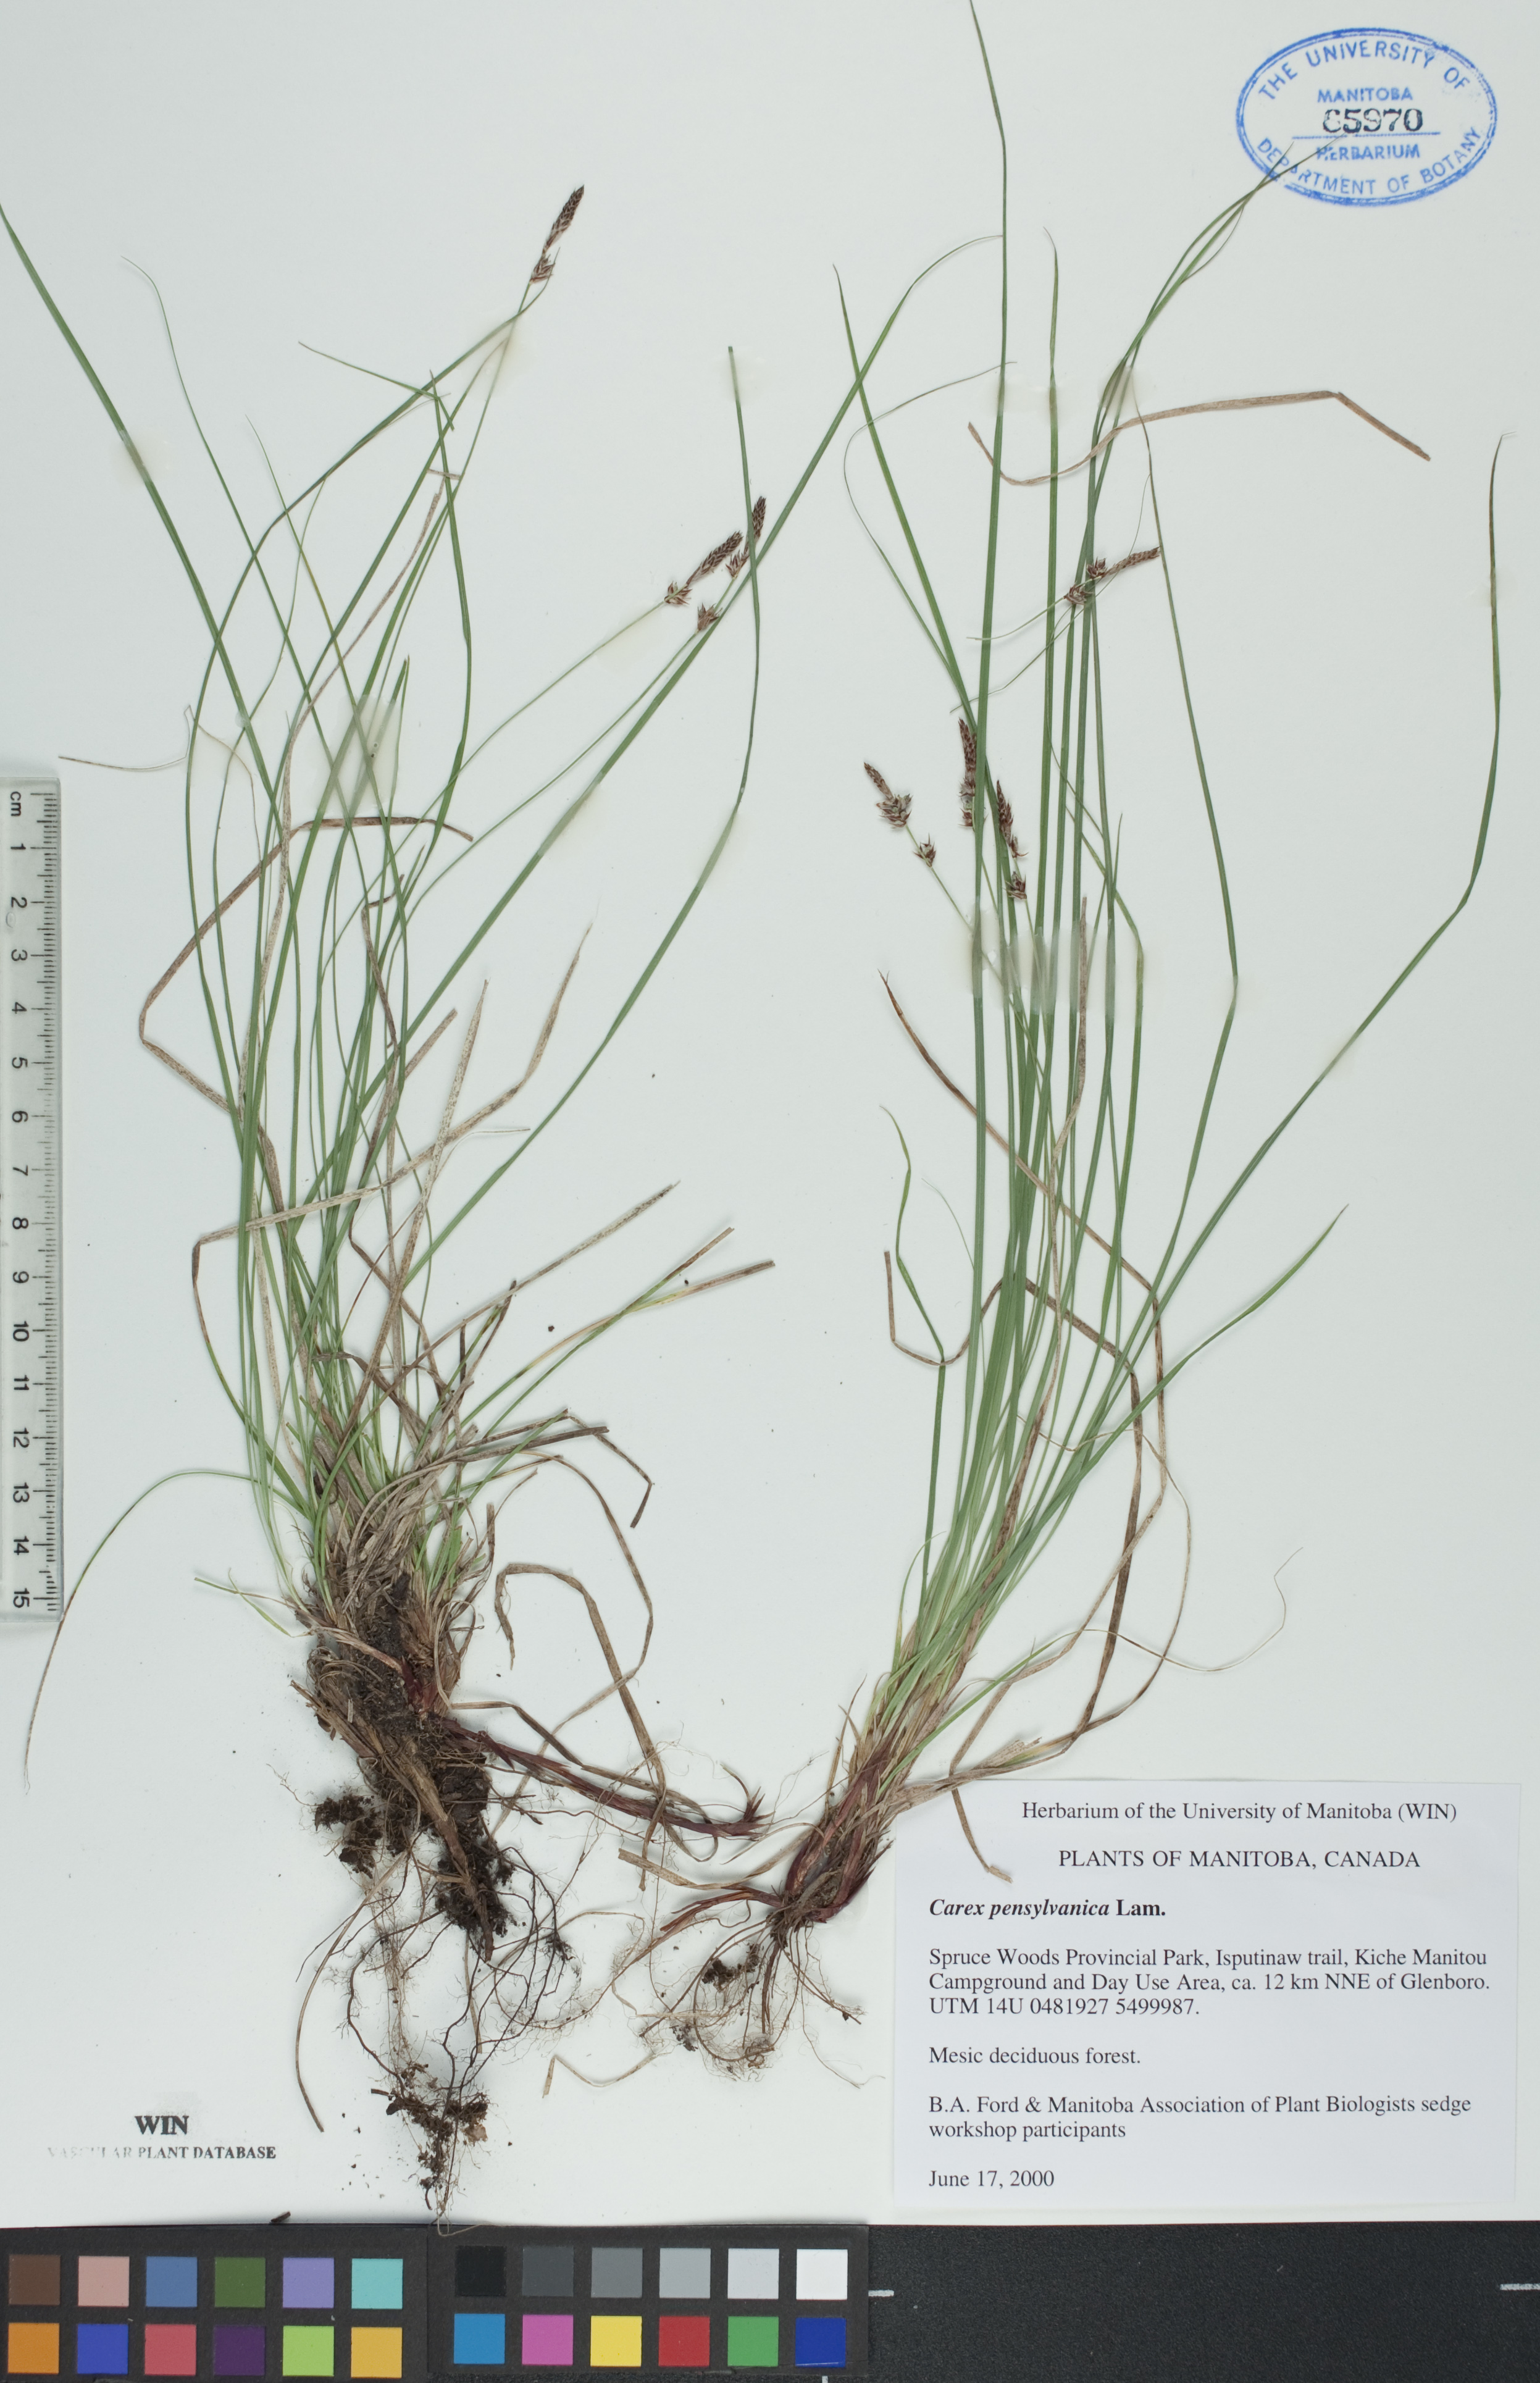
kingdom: Plantae
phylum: Tracheophyta
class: Liliopsida
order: Poales
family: Cyperaceae
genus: Carex
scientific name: Carex pensylvanica
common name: Common oak sedge
